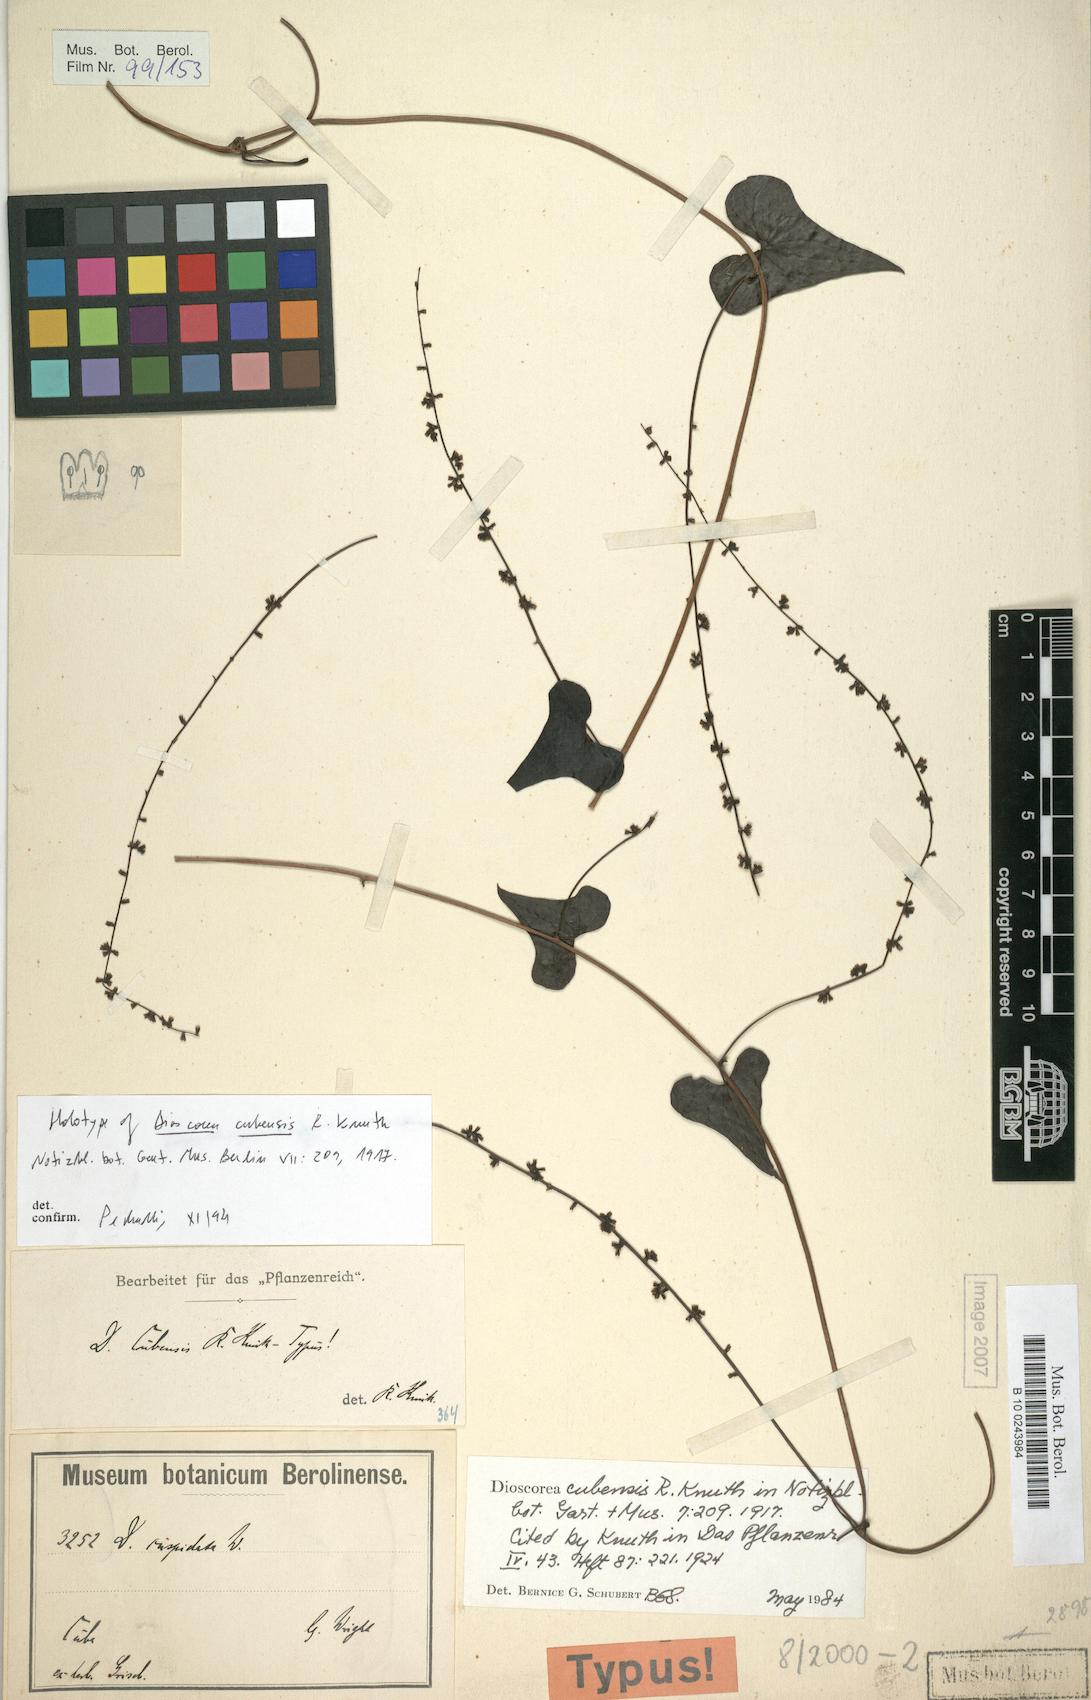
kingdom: Plantae
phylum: Tracheophyta
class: Liliopsida
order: Dioscoreales
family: Dioscoreaceae
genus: Dioscorea
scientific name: Dioscorea cubensis
